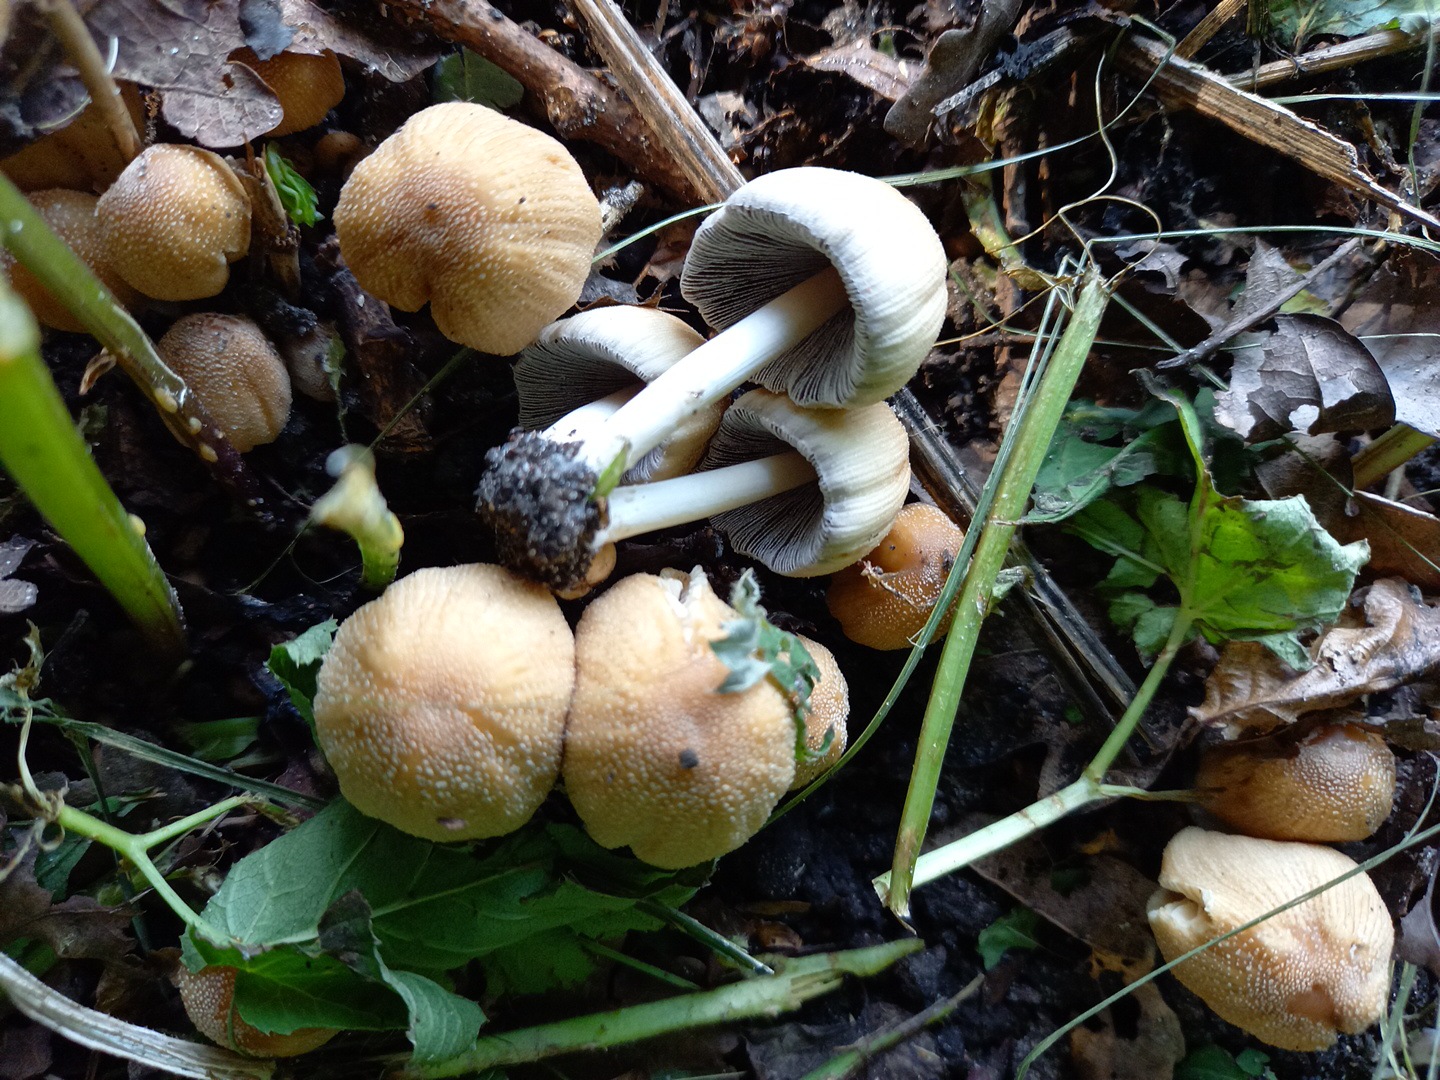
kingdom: Fungi
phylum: Basidiomycota
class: Agaricomycetes
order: Agaricales
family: Psathyrellaceae
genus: Coprinellus
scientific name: Coprinellus micaceus
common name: glimmer-blækhat
